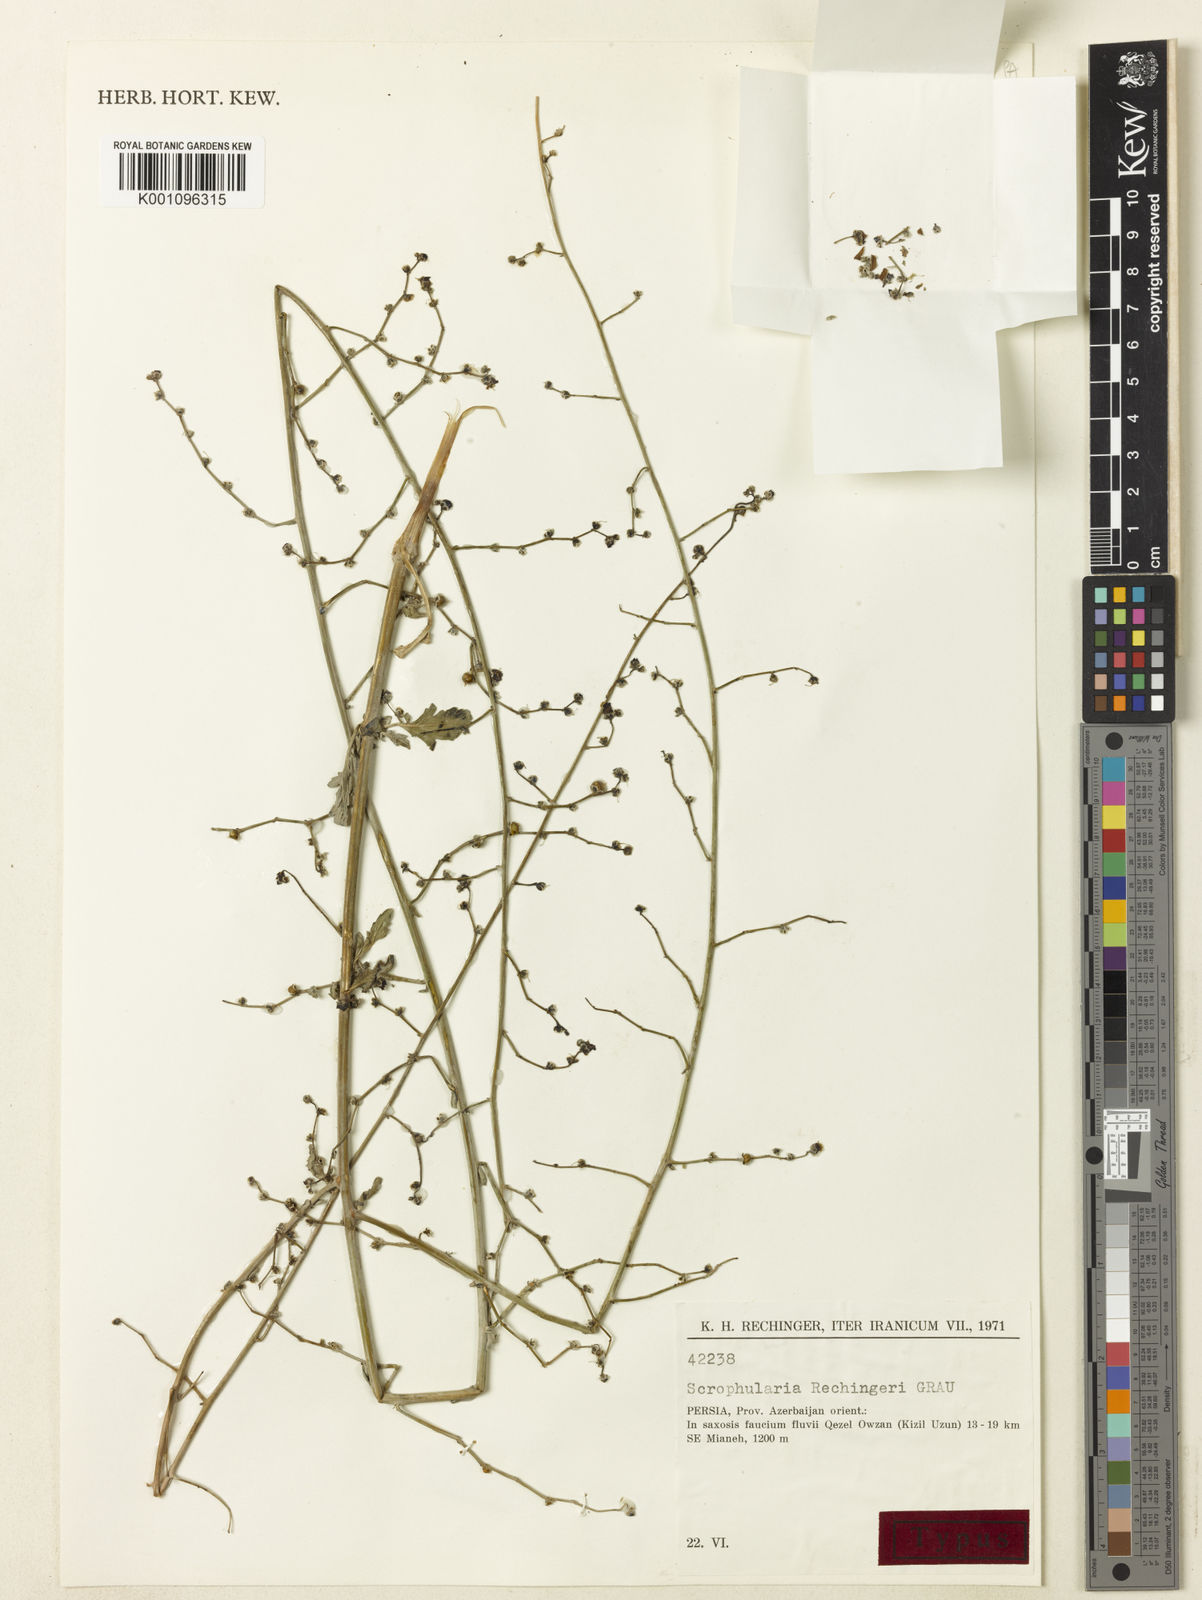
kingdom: Plantae
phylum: Tracheophyta
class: Magnoliopsida
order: Lamiales
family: Scrophulariaceae
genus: Scrophularia
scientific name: Scrophularia rechingeri
